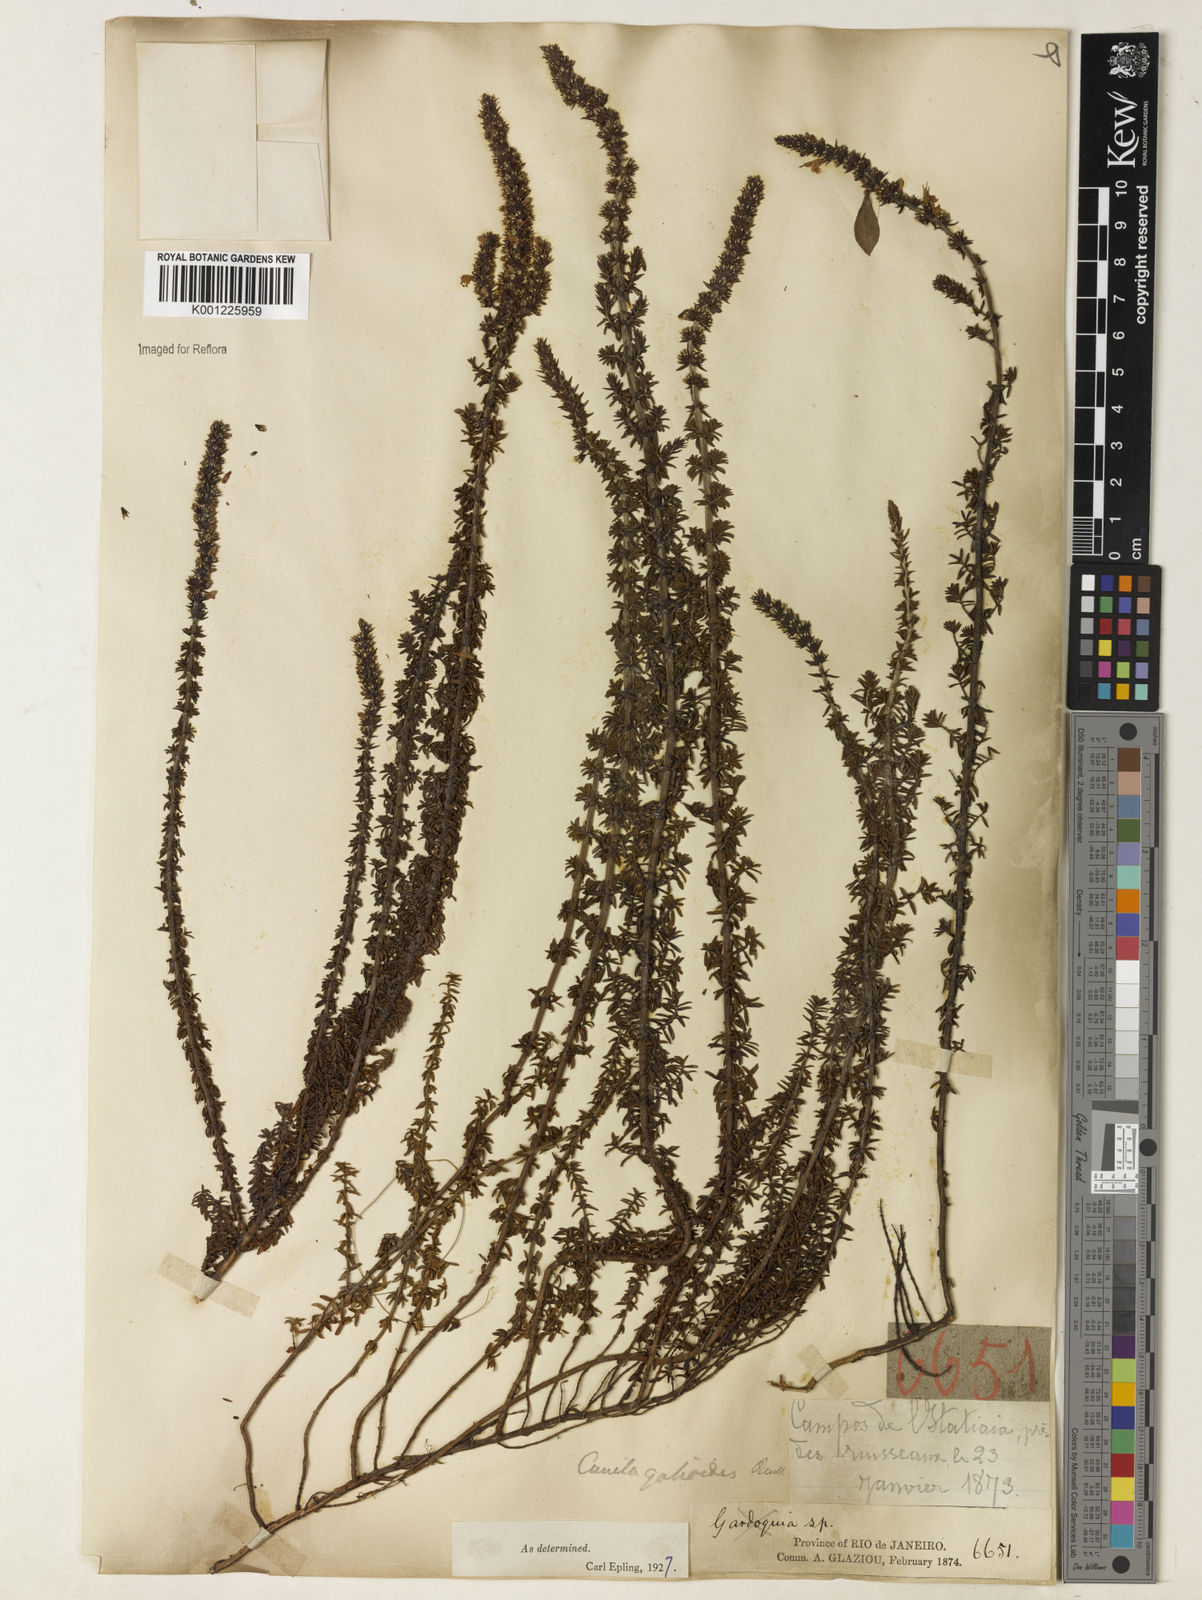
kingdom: Plantae
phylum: Tracheophyta
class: Magnoliopsida
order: Lamiales
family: Lamiaceae
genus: Cunila
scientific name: Cunila galioides
